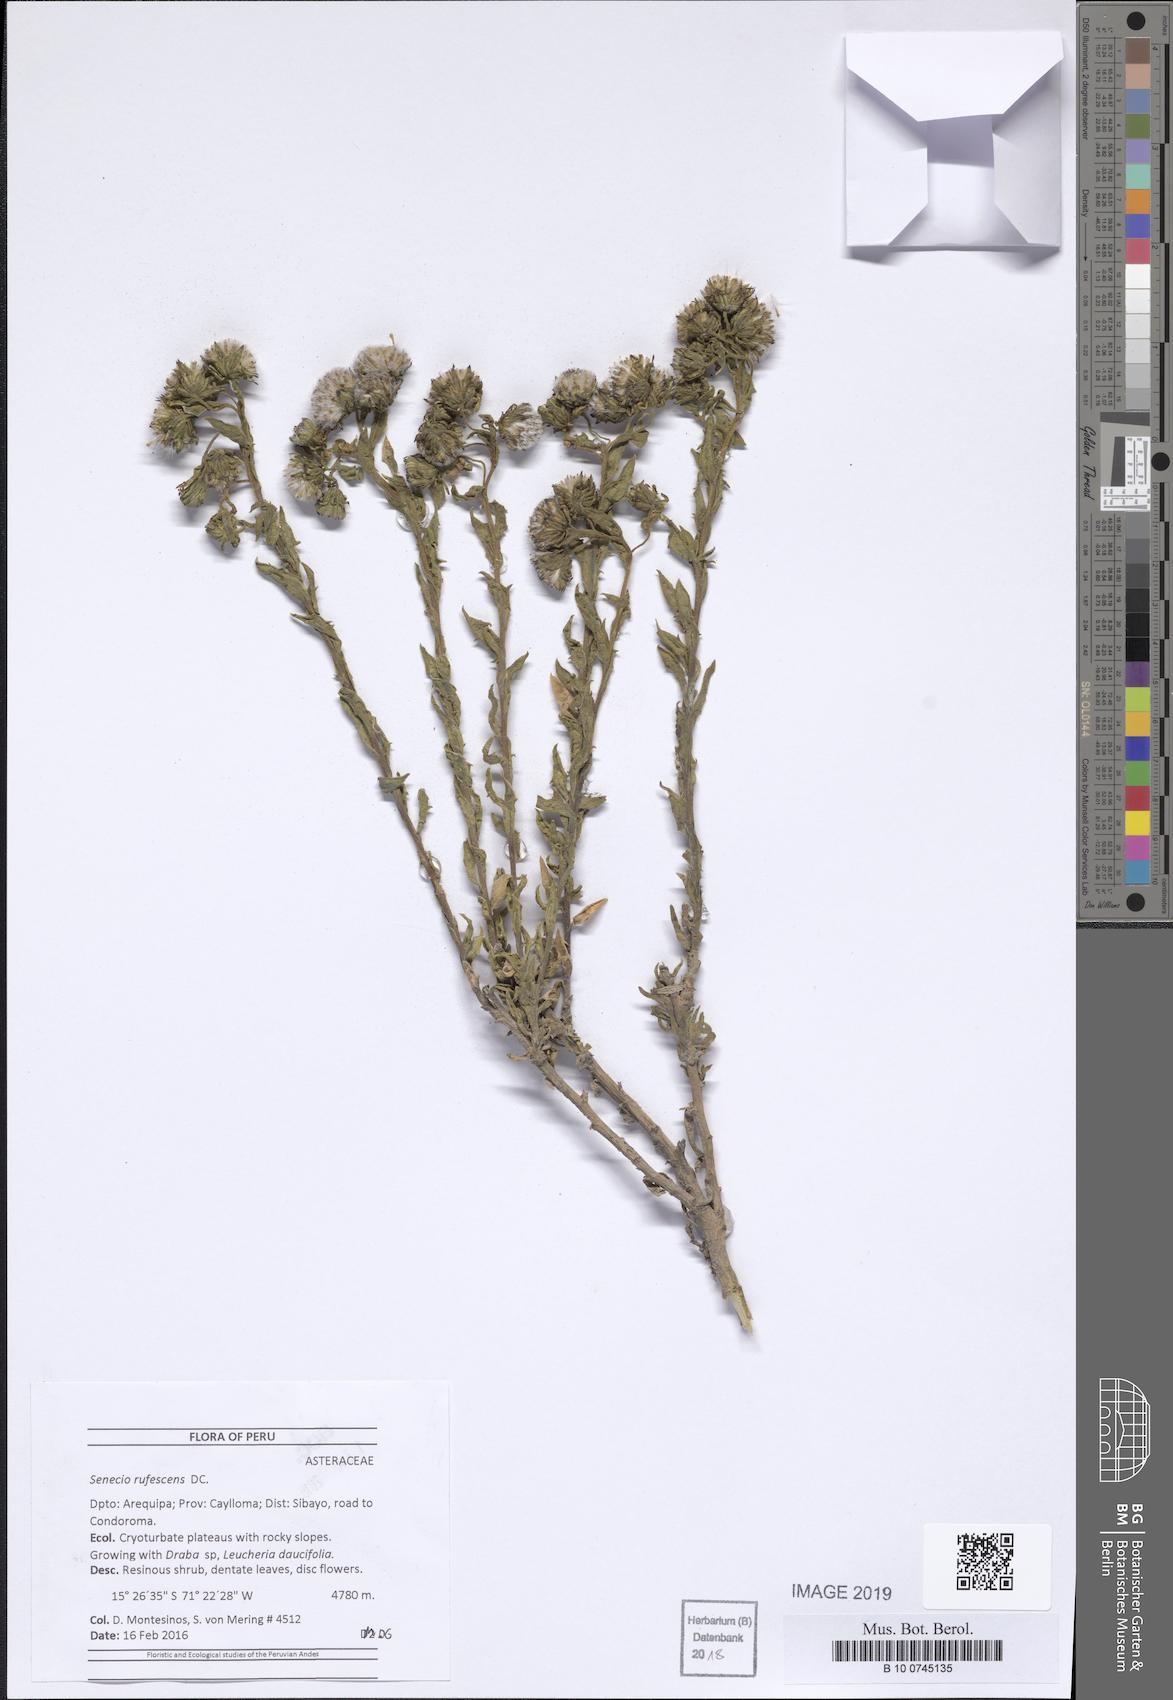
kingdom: Plantae
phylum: Tracheophyta
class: Magnoliopsida
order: Asterales
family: Asteraceae
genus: Senecio
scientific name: Senecio rufescens
